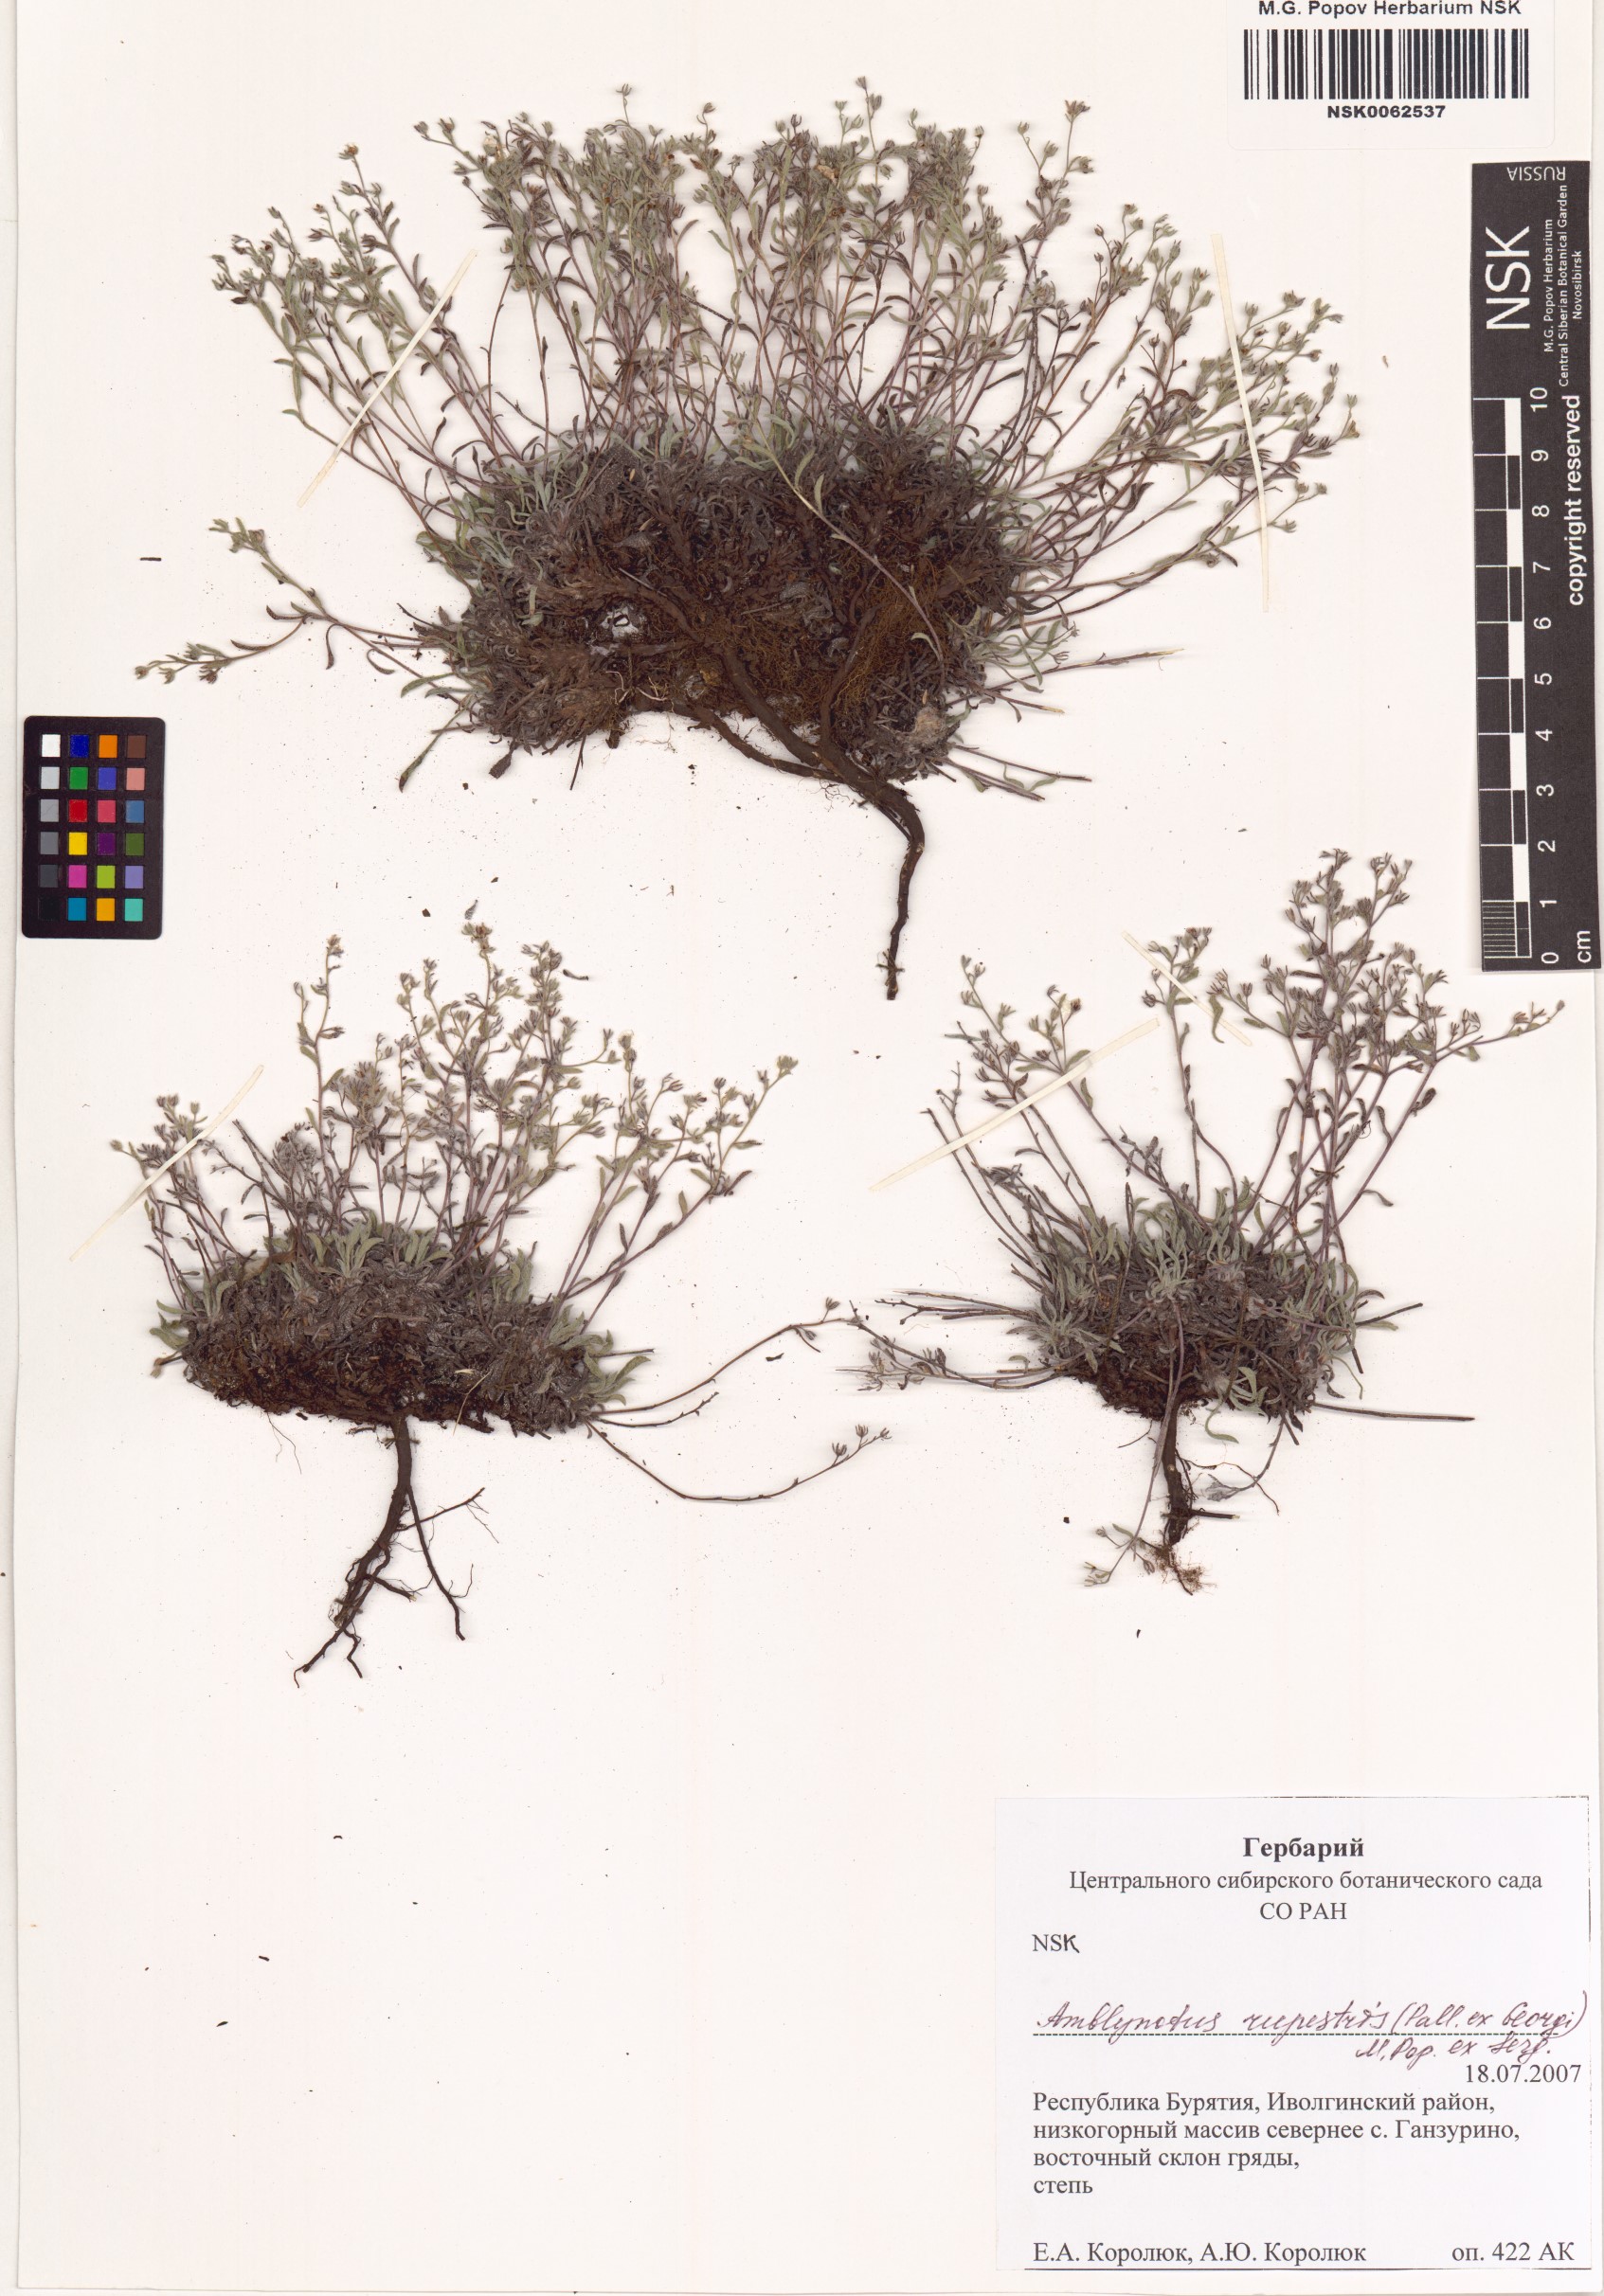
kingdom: Plantae
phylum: Tracheophyta
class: Magnoliopsida
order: Boraginales
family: Boraginaceae
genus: Eritrichium
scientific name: Eritrichium rupestre
